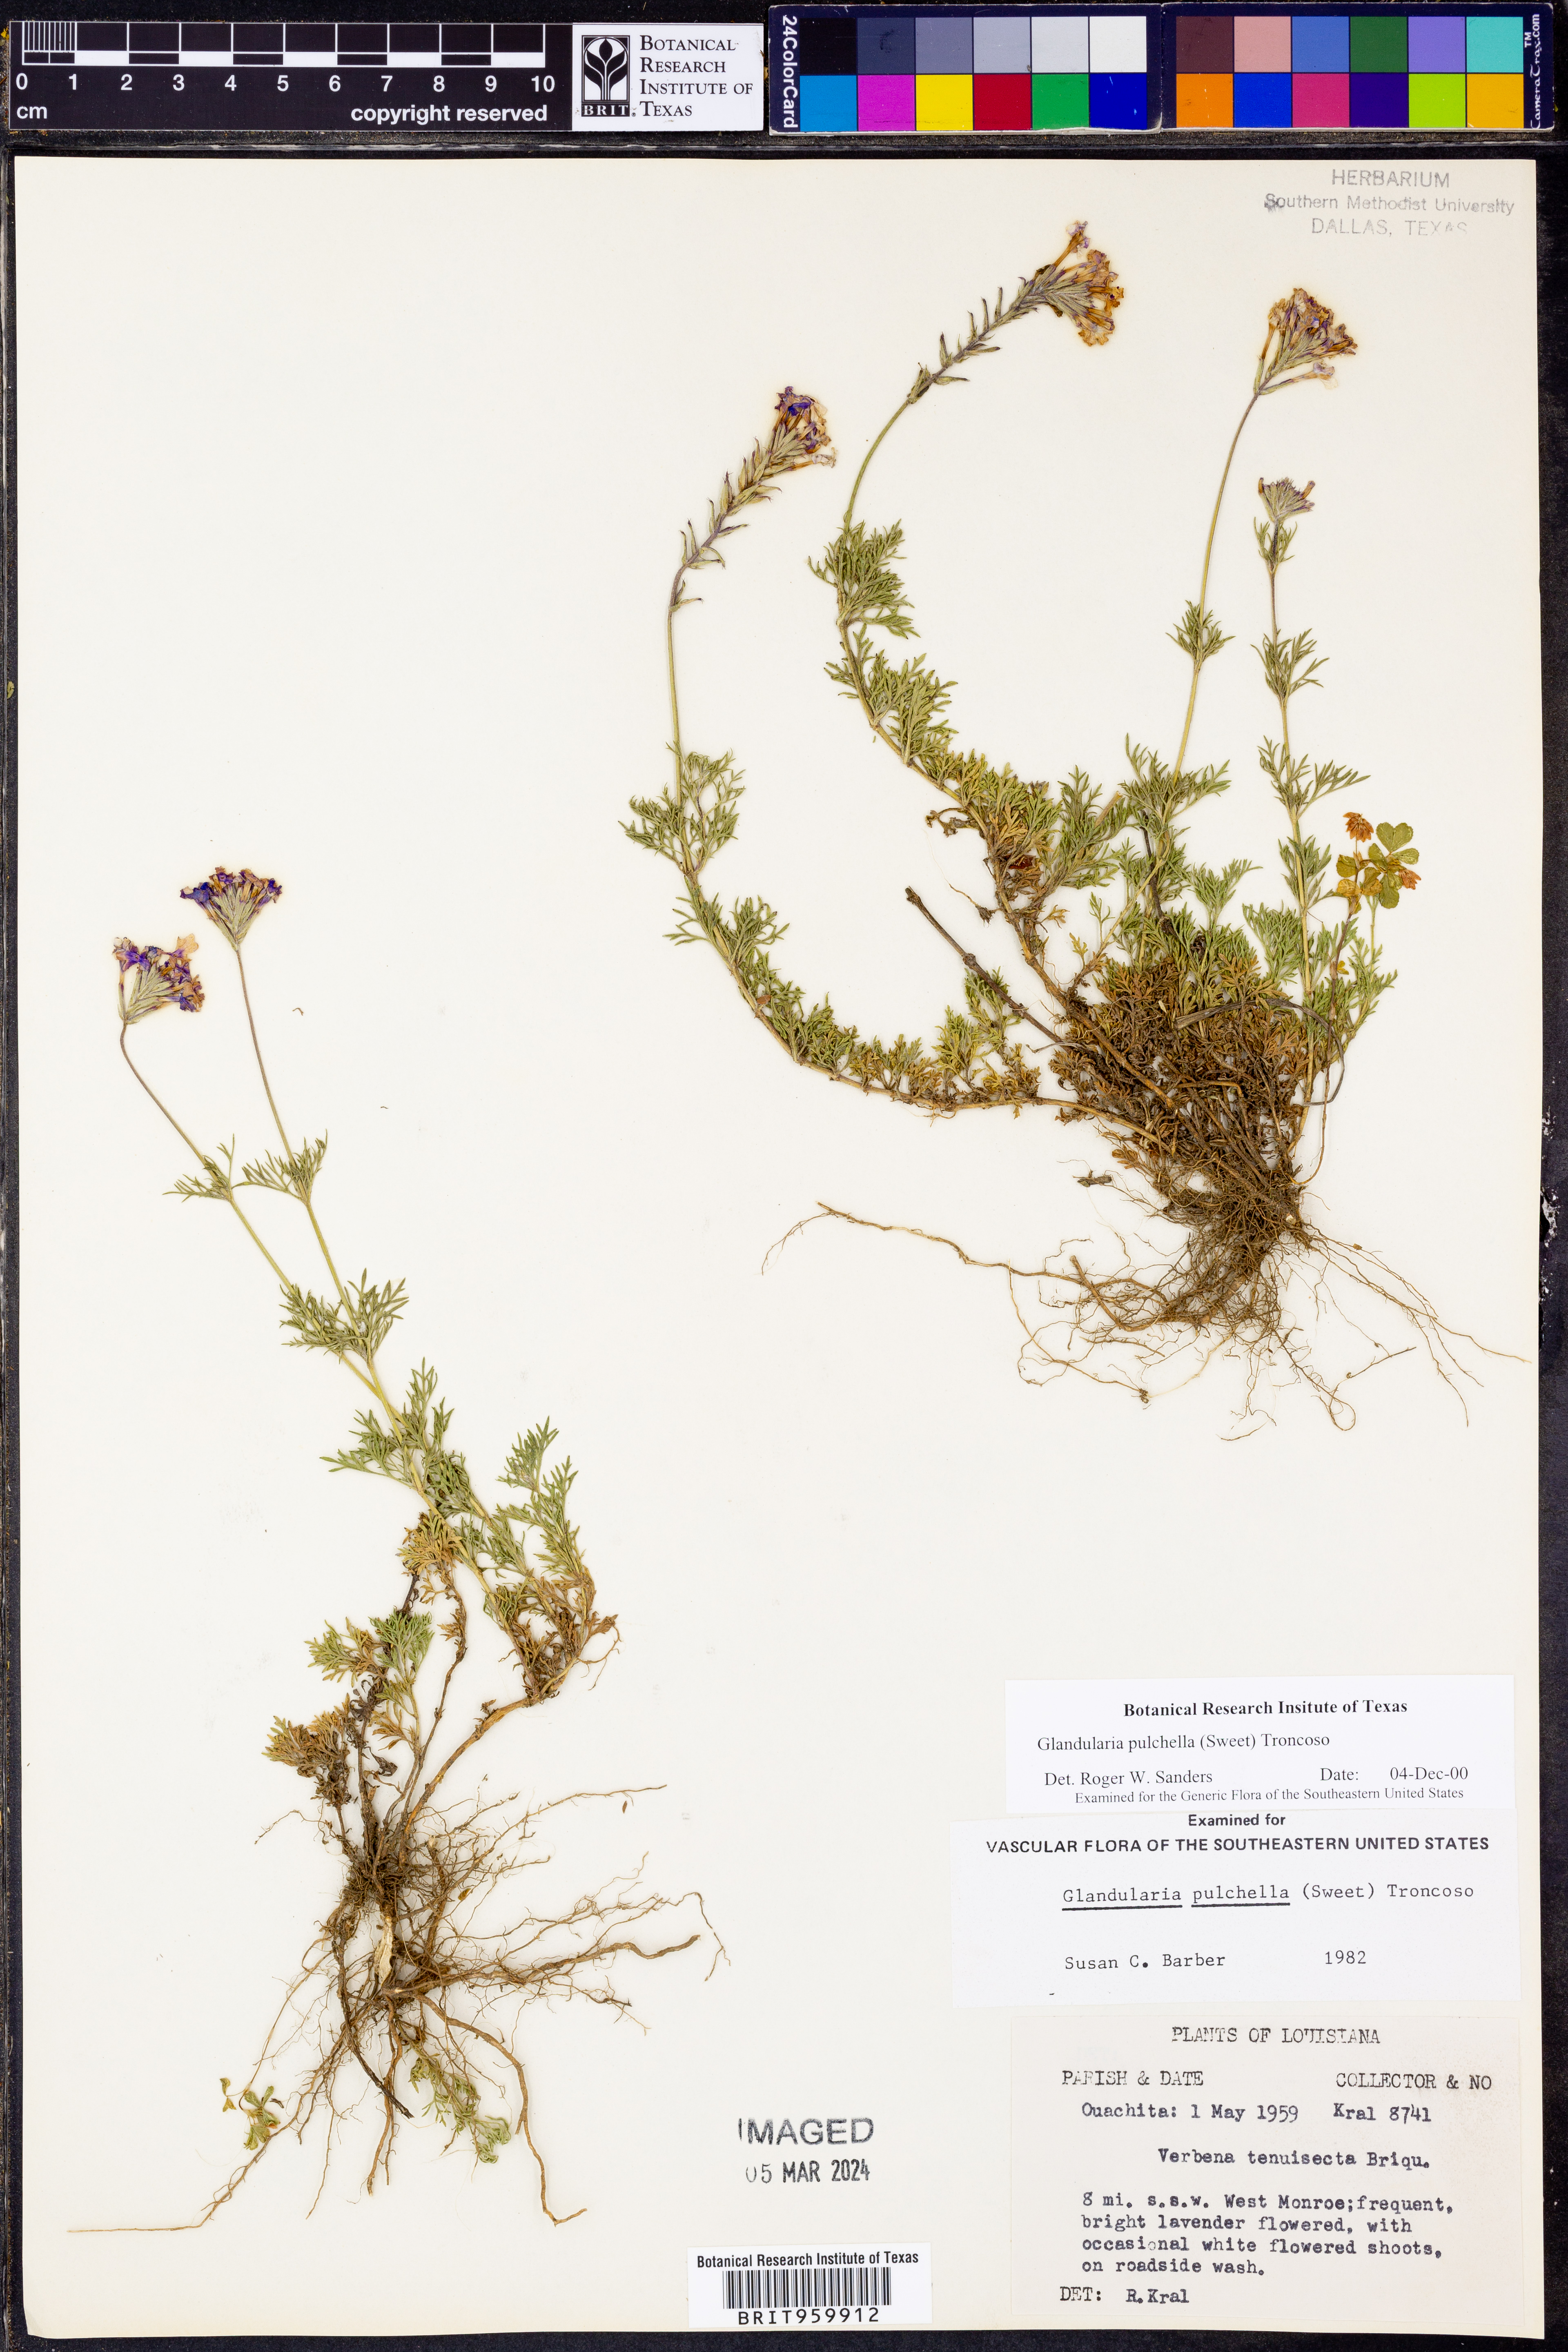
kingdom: Plantae
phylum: Tracheophyta
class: Magnoliopsida
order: Lamiales
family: Verbenaceae
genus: Verbena
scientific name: Verbena tenera
